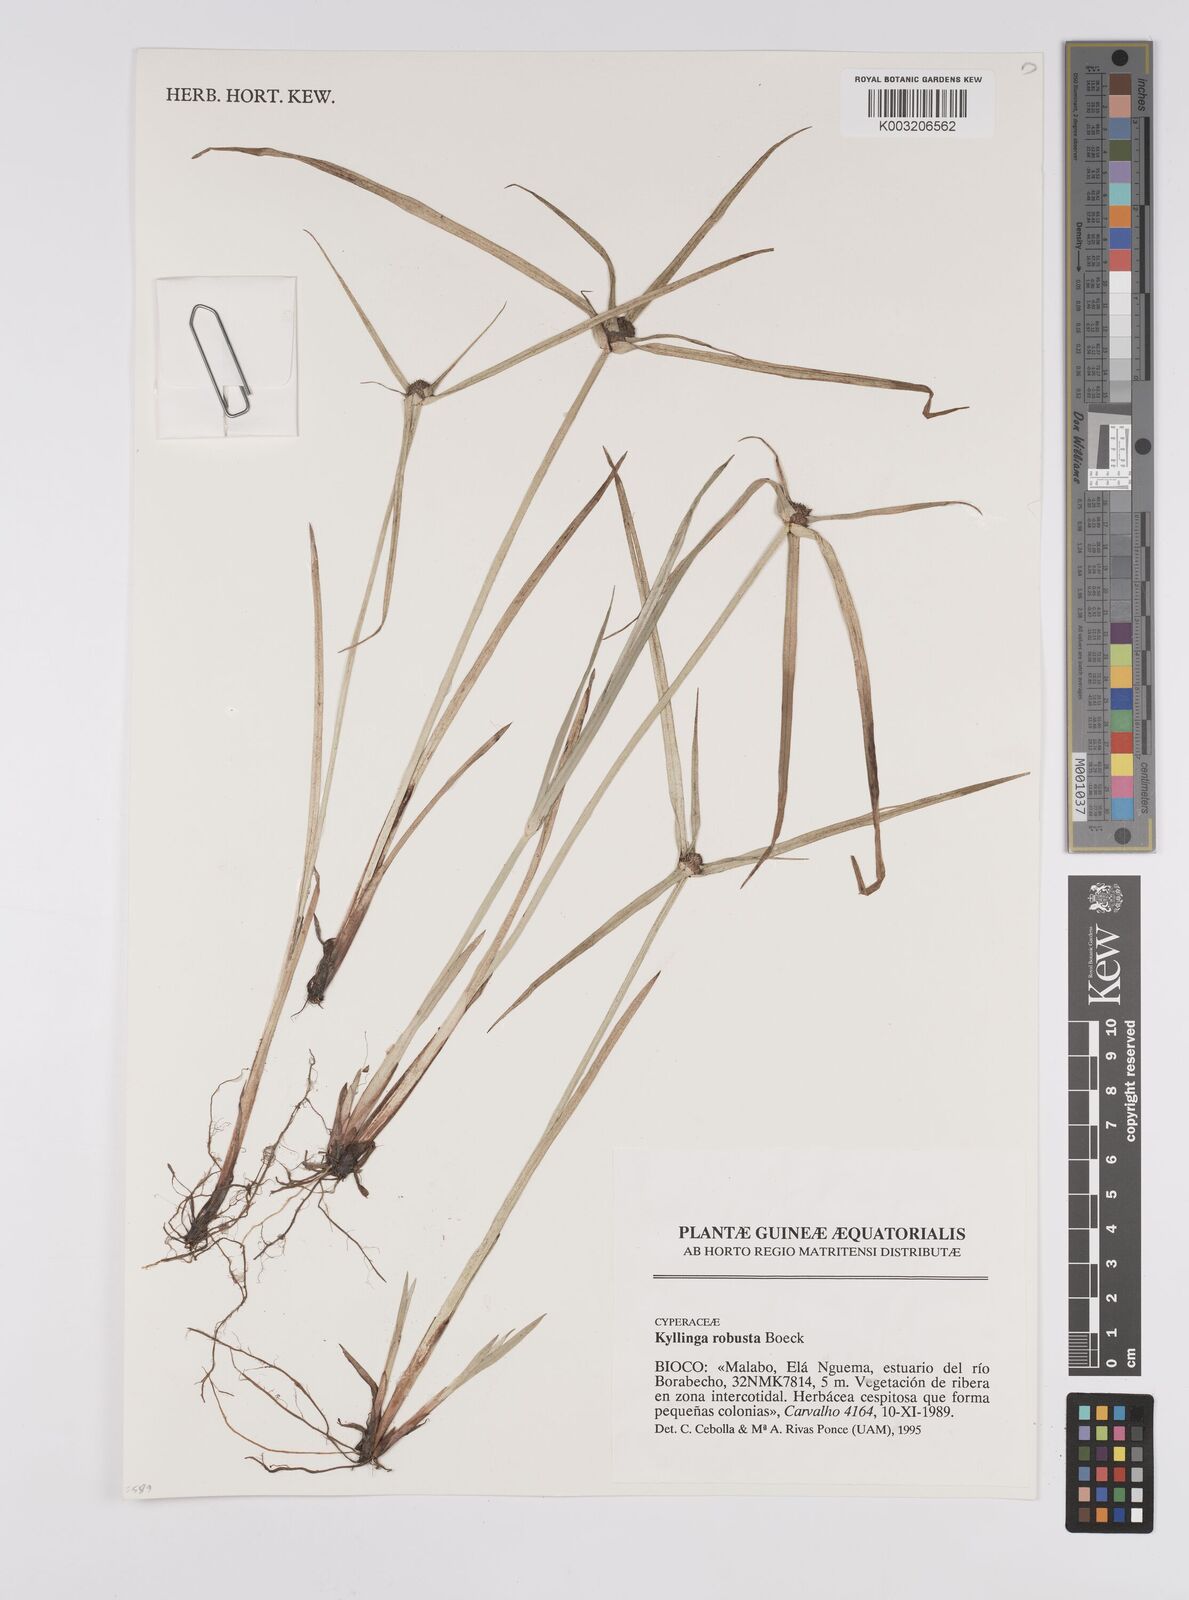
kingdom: Plantae
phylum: Tracheophyta
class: Liliopsida
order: Poales
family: Cyperaceae
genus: Cyperus
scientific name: Cyperus
